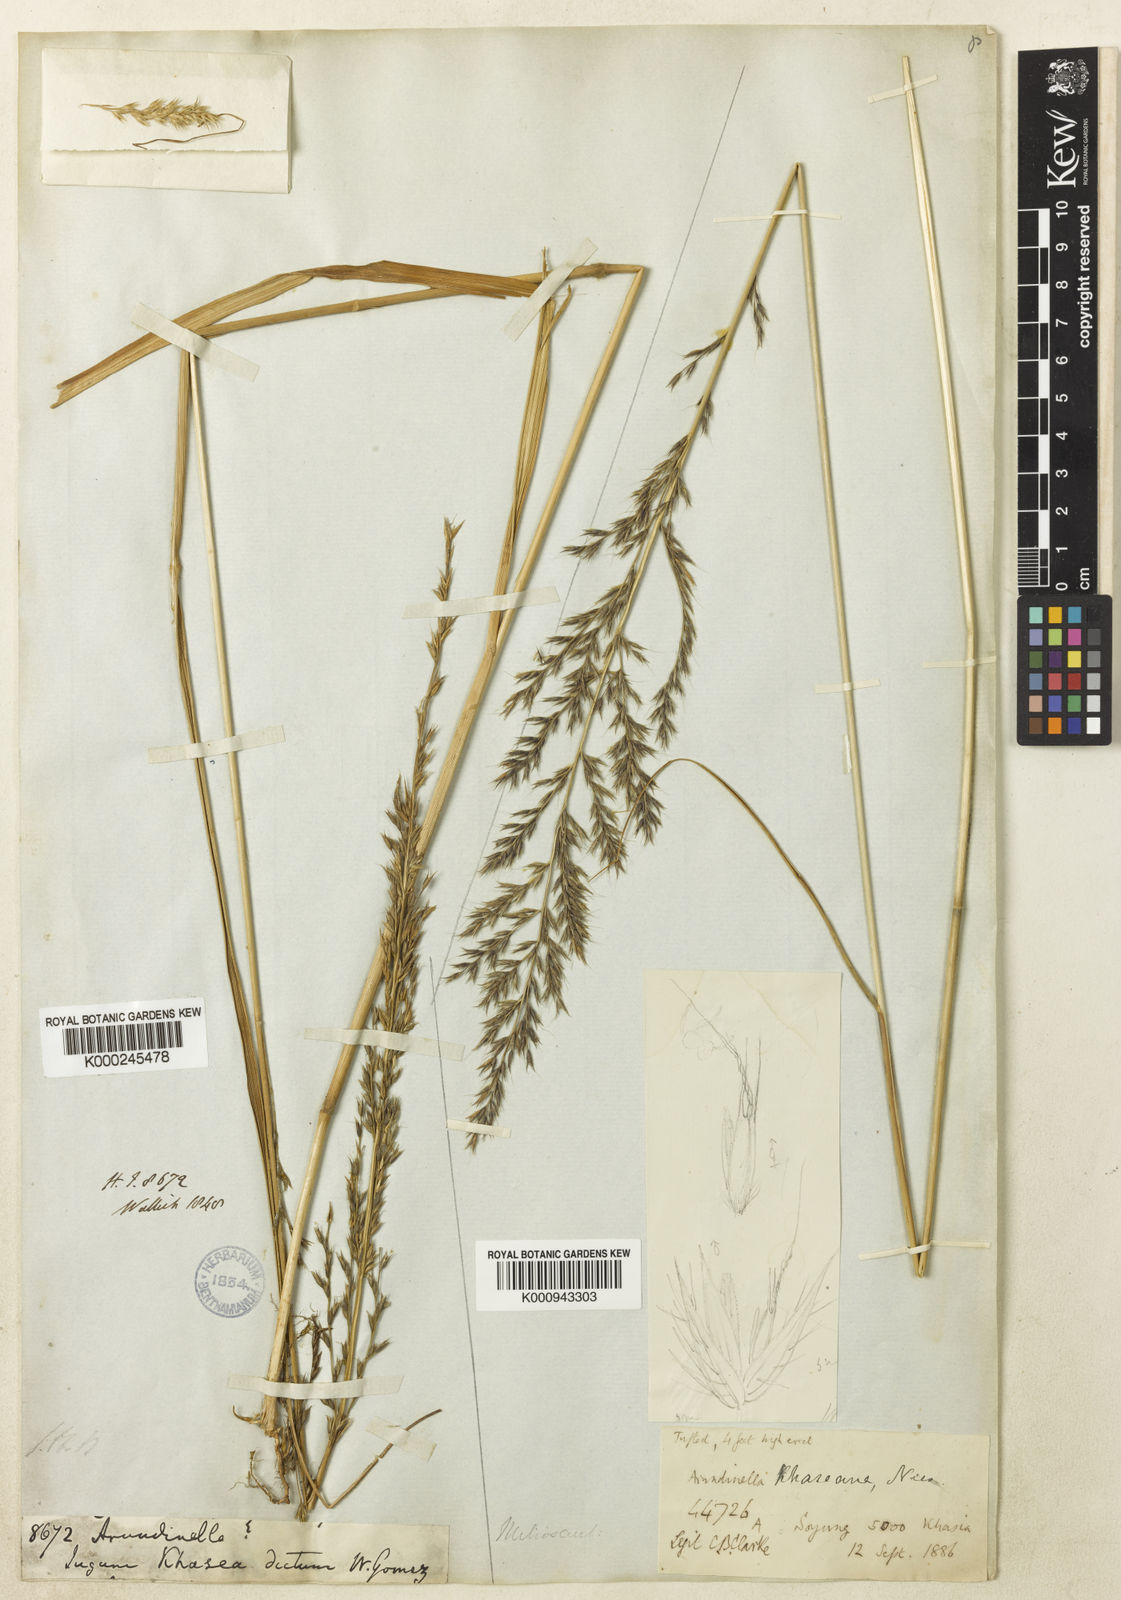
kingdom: Plantae
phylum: Tracheophyta
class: Liliopsida
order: Poales
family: Poaceae
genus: Arundinella
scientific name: Arundinella
